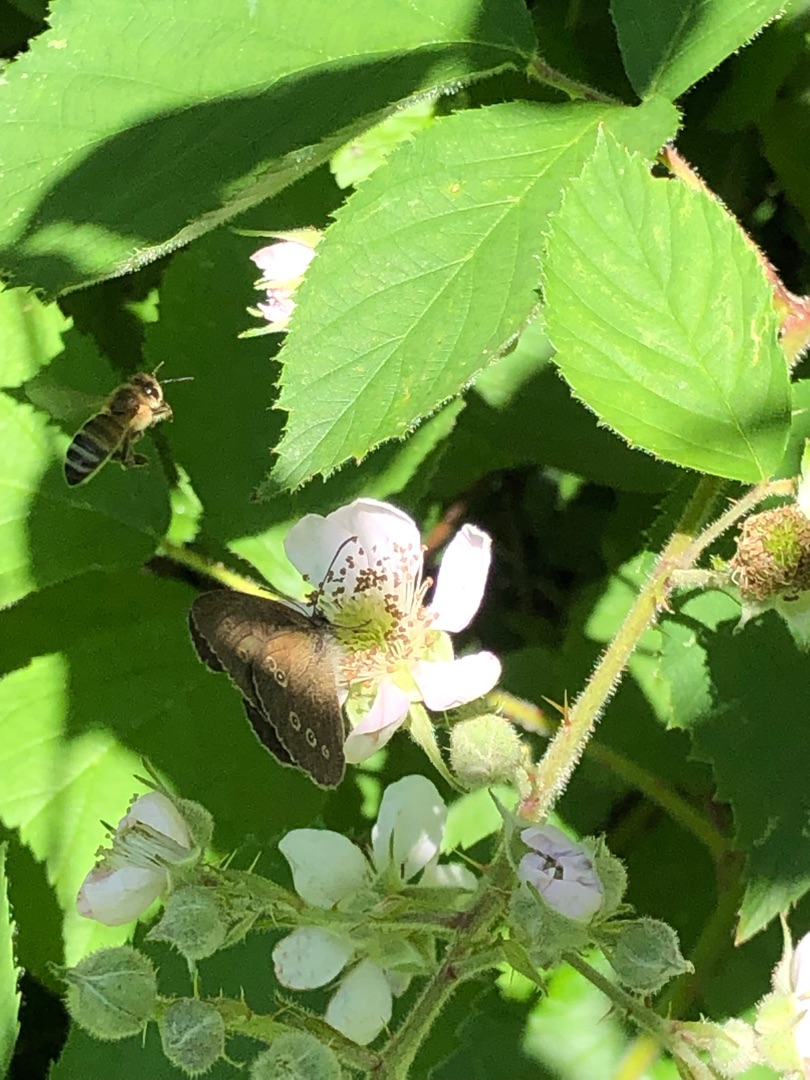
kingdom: Animalia
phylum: Arthropoda
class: Insecta
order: Lepidoptera
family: Nymphalidae
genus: Aphantopus
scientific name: Aphantopus hyperantus
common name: Engrandøje
